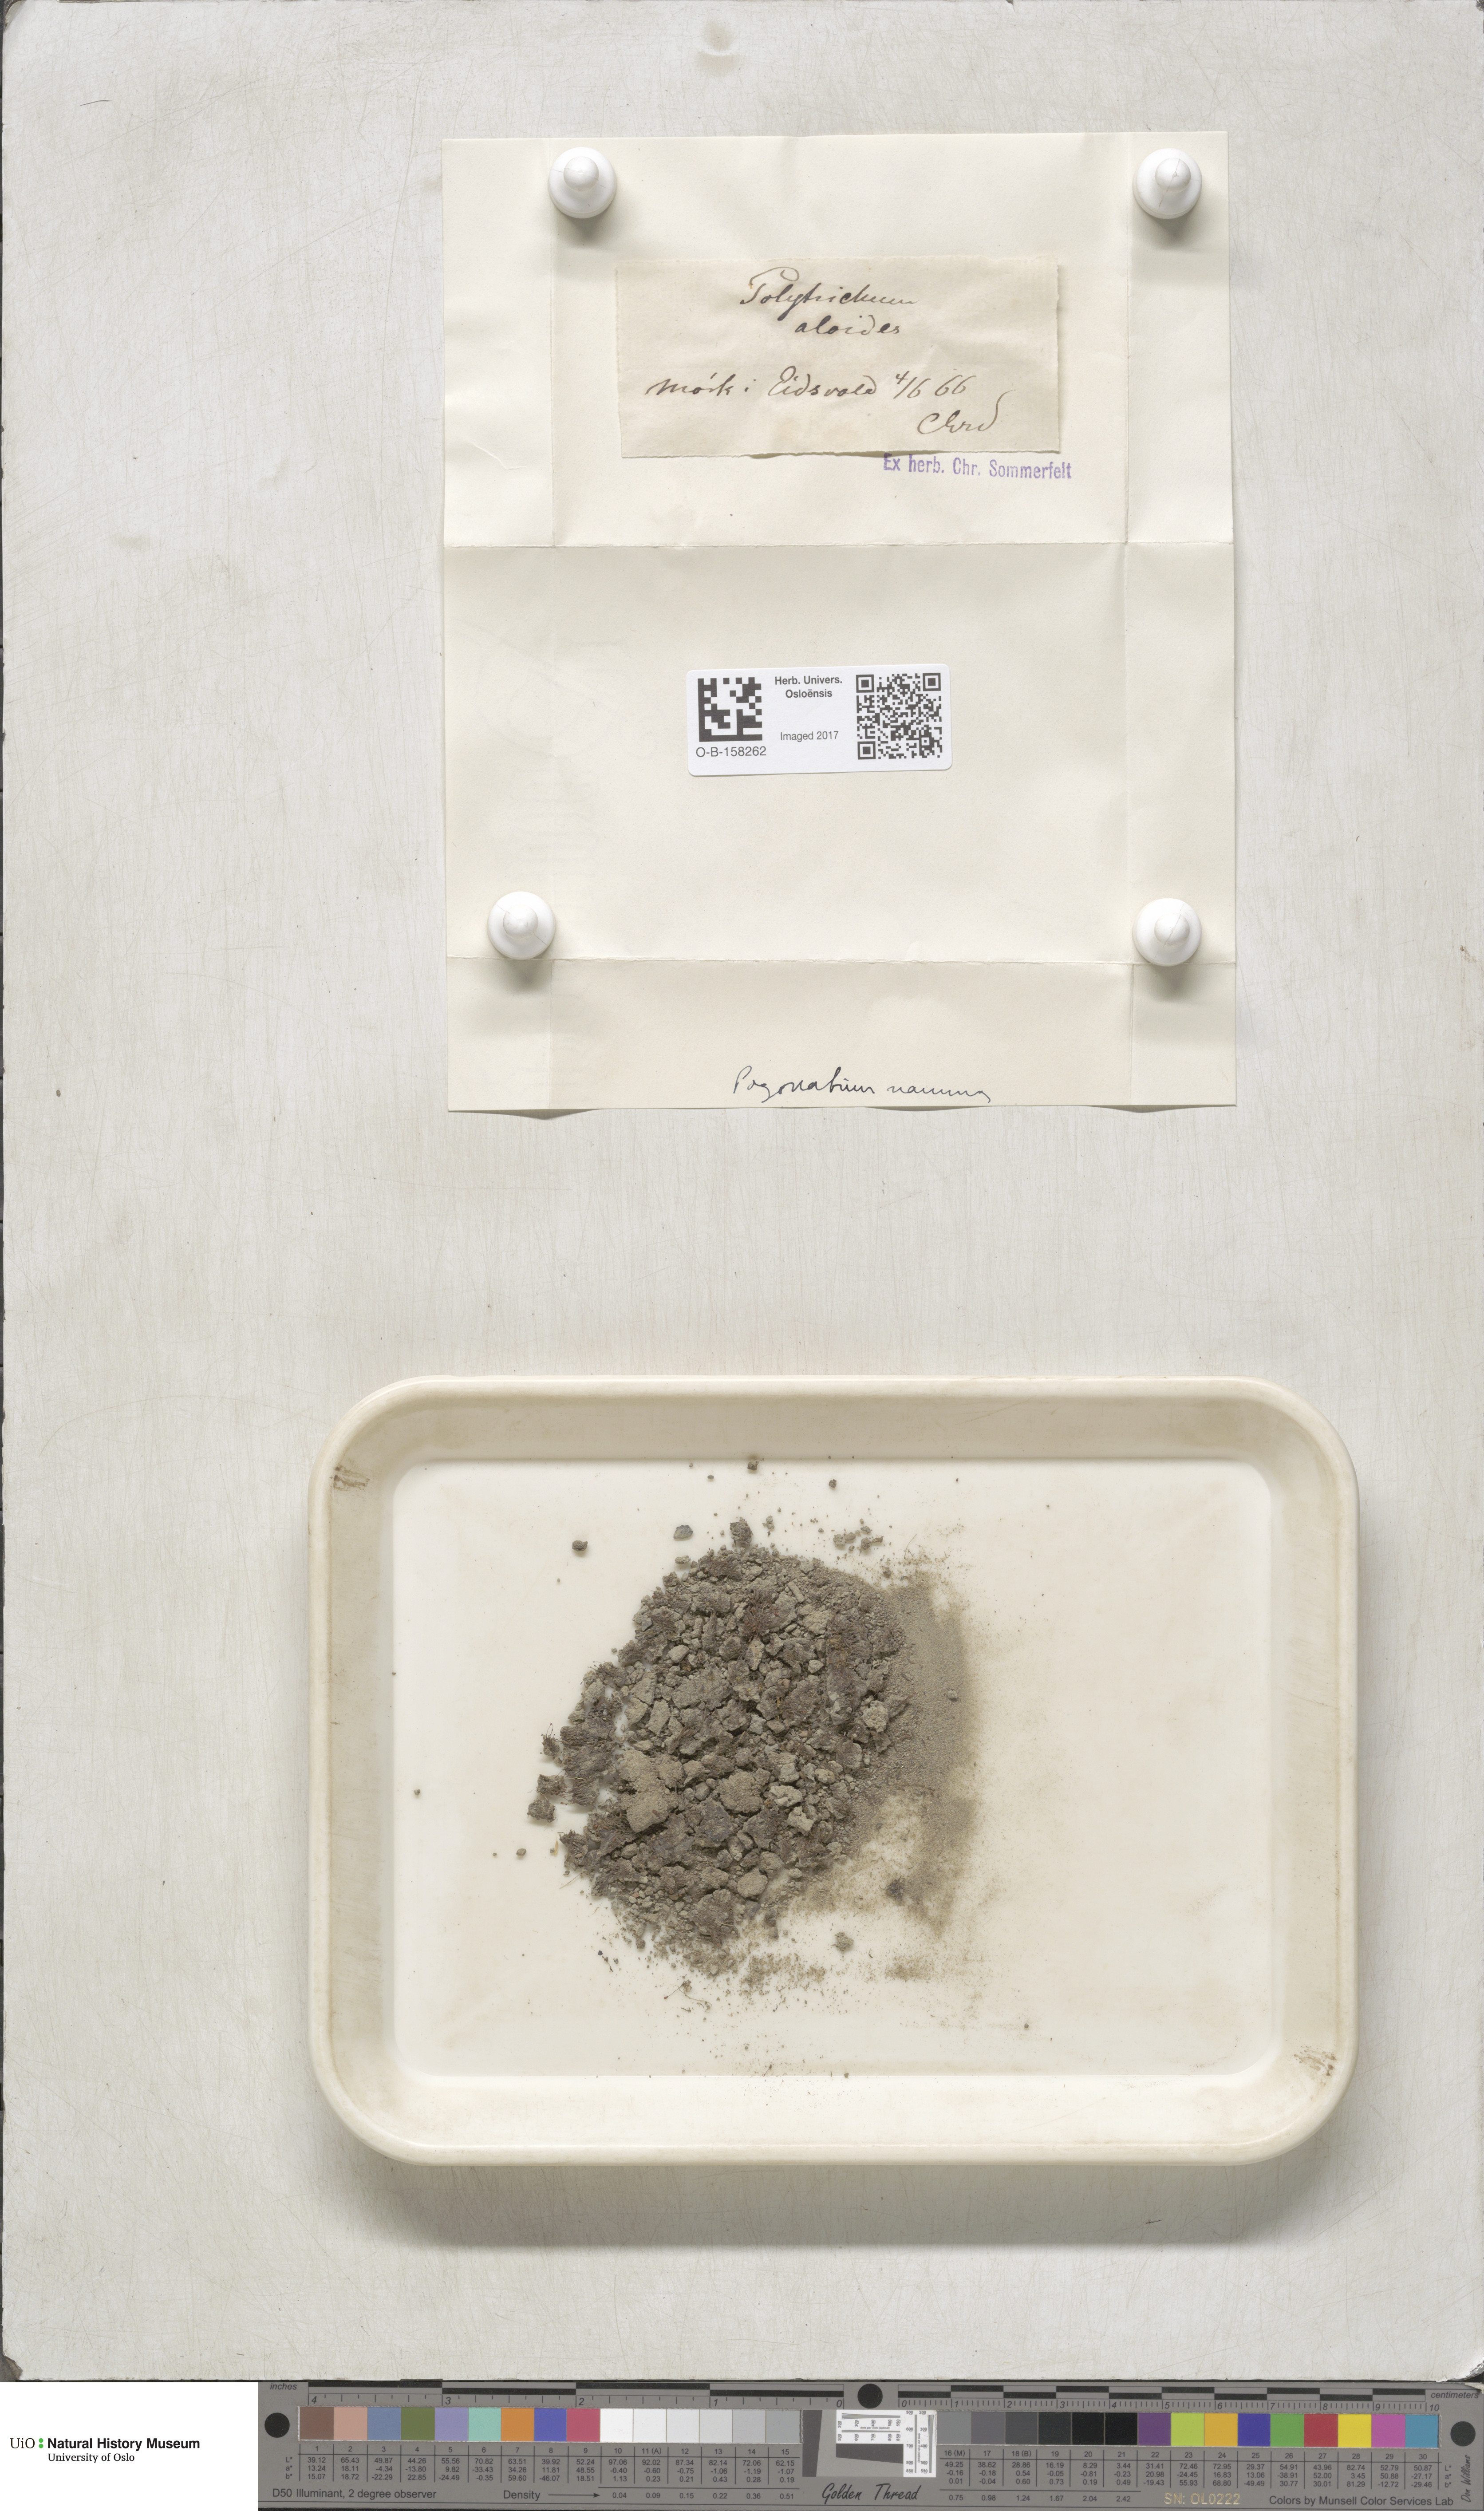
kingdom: Plantae
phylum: Bryophyta
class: Polytrichopsida
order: Polytrichales
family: Polytrichaceae
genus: Pogonatum
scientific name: Pogonatum nanum
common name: Dwarf haircap
